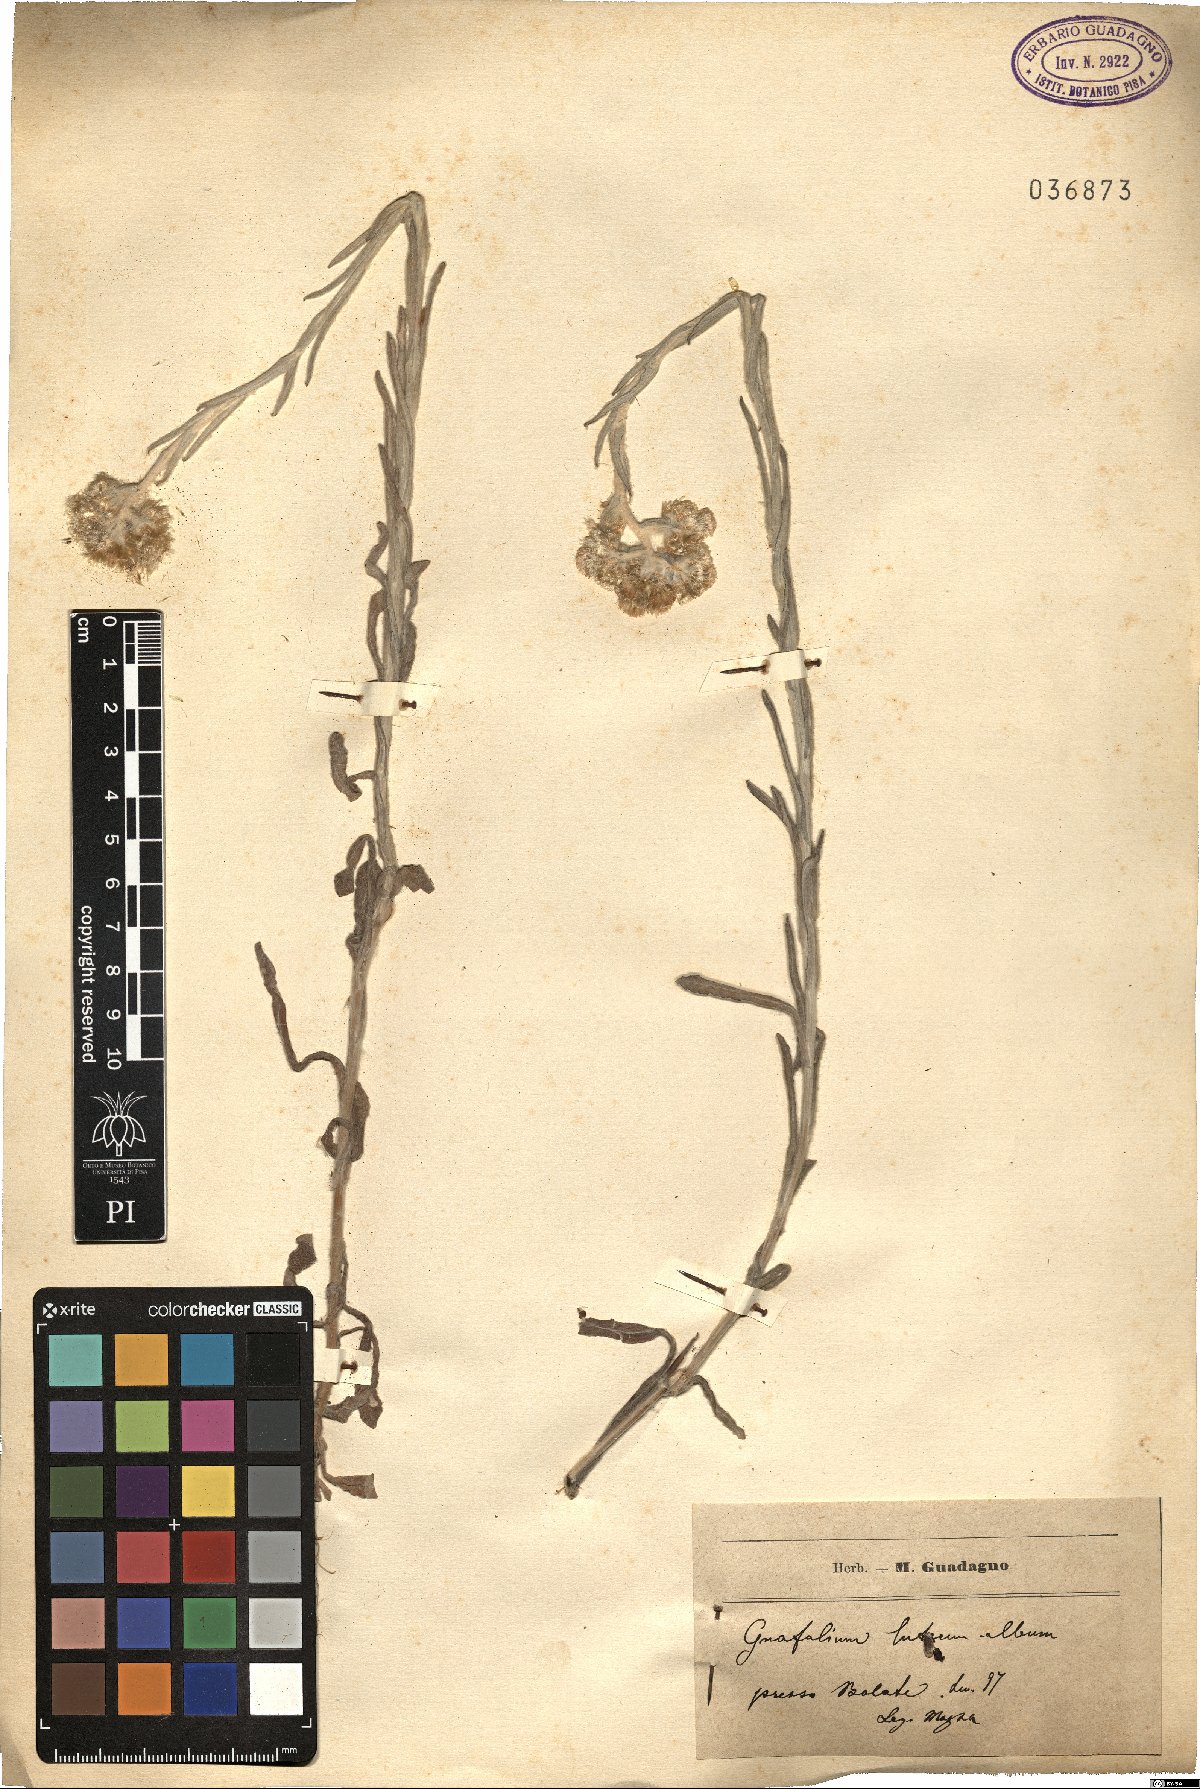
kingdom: Plantae
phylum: Tracheophyta
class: Magnoliopsida
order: Asterales
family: Asteraceae
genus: Helichrysum
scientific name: Helichrysum luteoalbum
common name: Daisy
